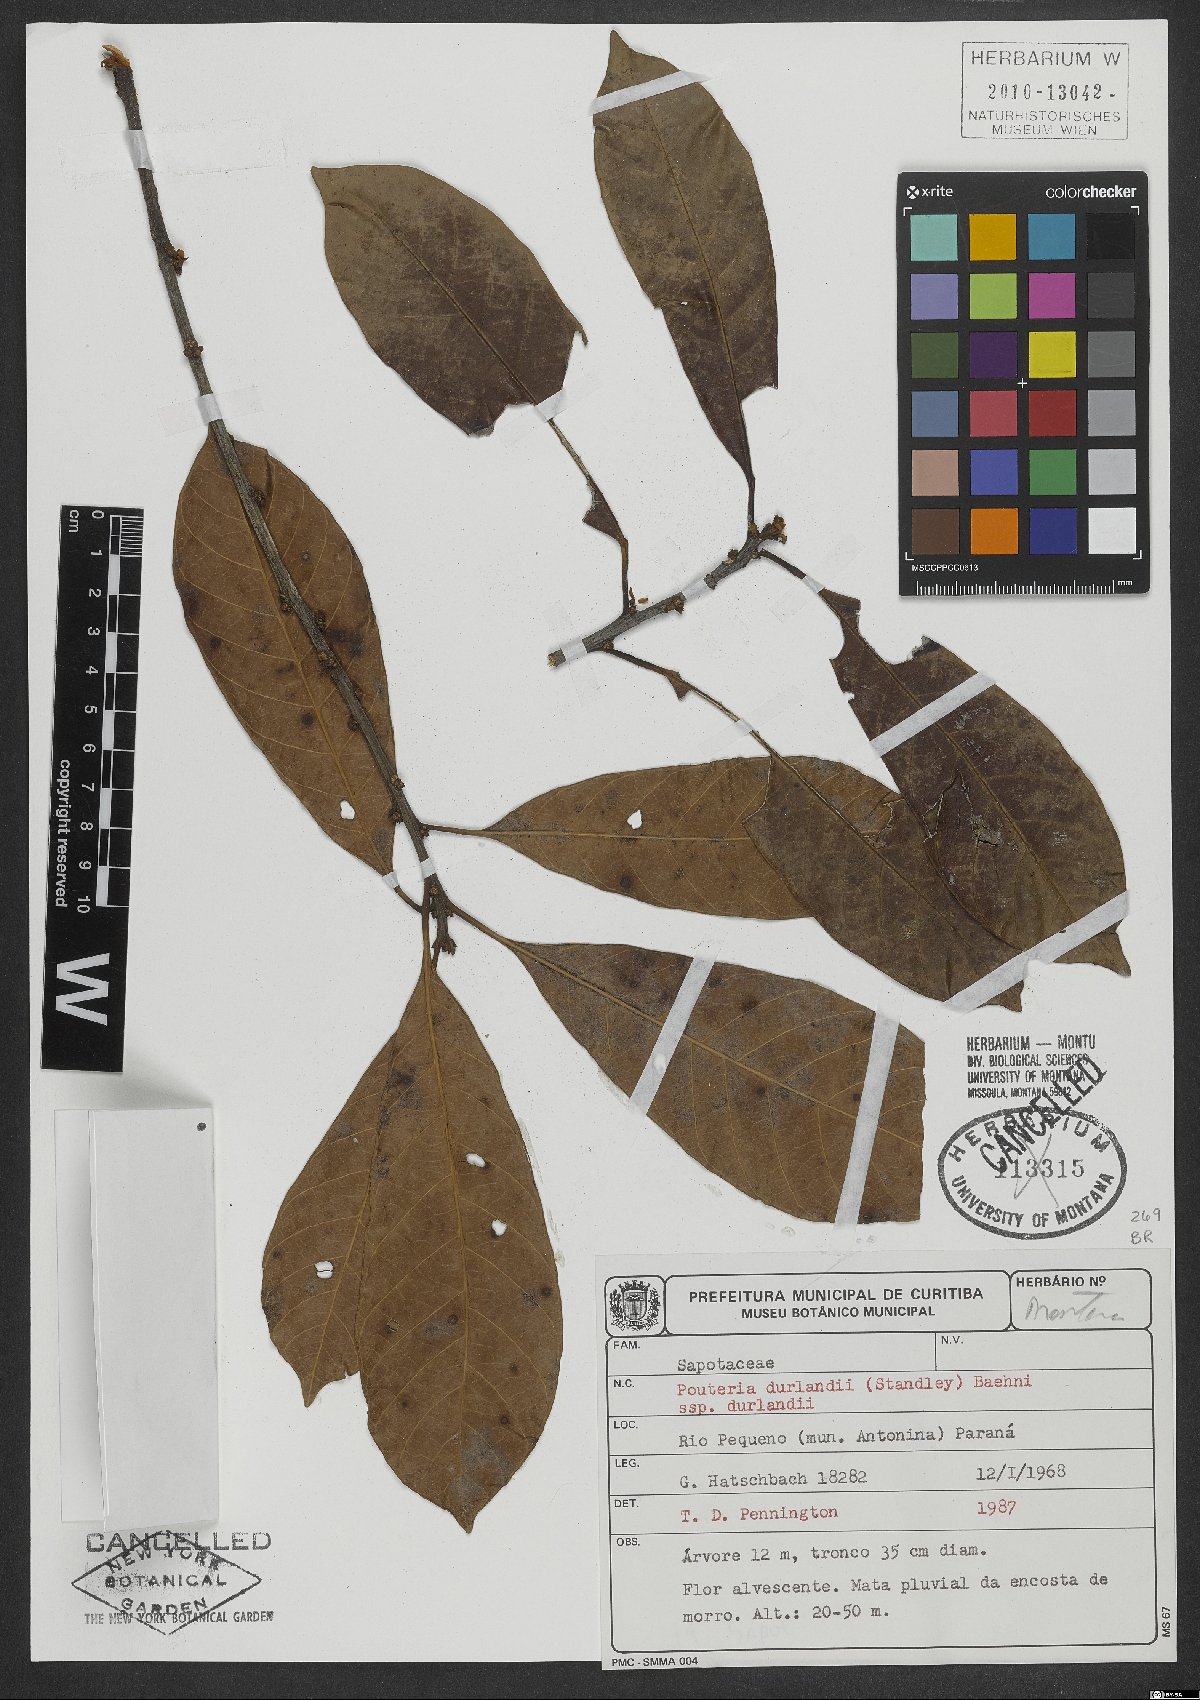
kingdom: Plantae
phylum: Tracheophyta
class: Magnoliopsida
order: Ericales
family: Sapotaceae
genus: Pouteria
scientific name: Pouteria durlandii
